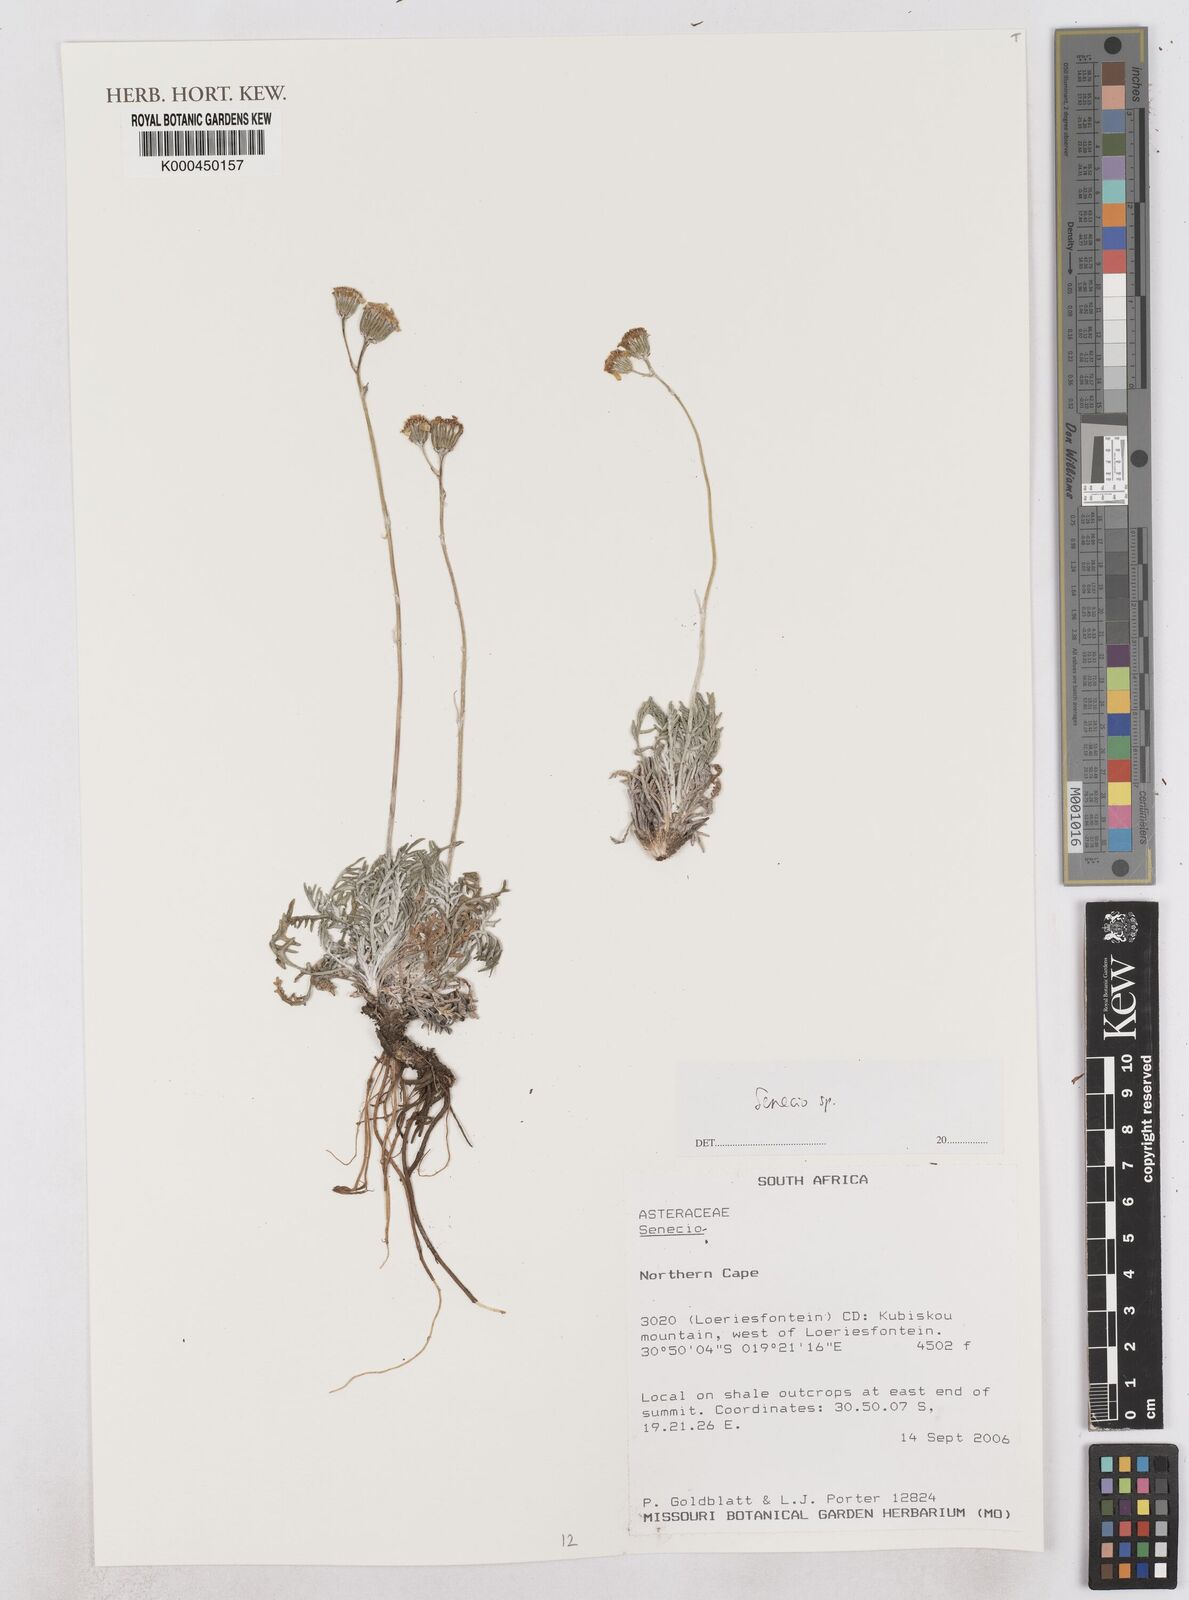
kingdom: Plantae
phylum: Tracheophyta
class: Magnoliopsida
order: Asterales
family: Asteraceae
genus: Senecio
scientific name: Senecio
